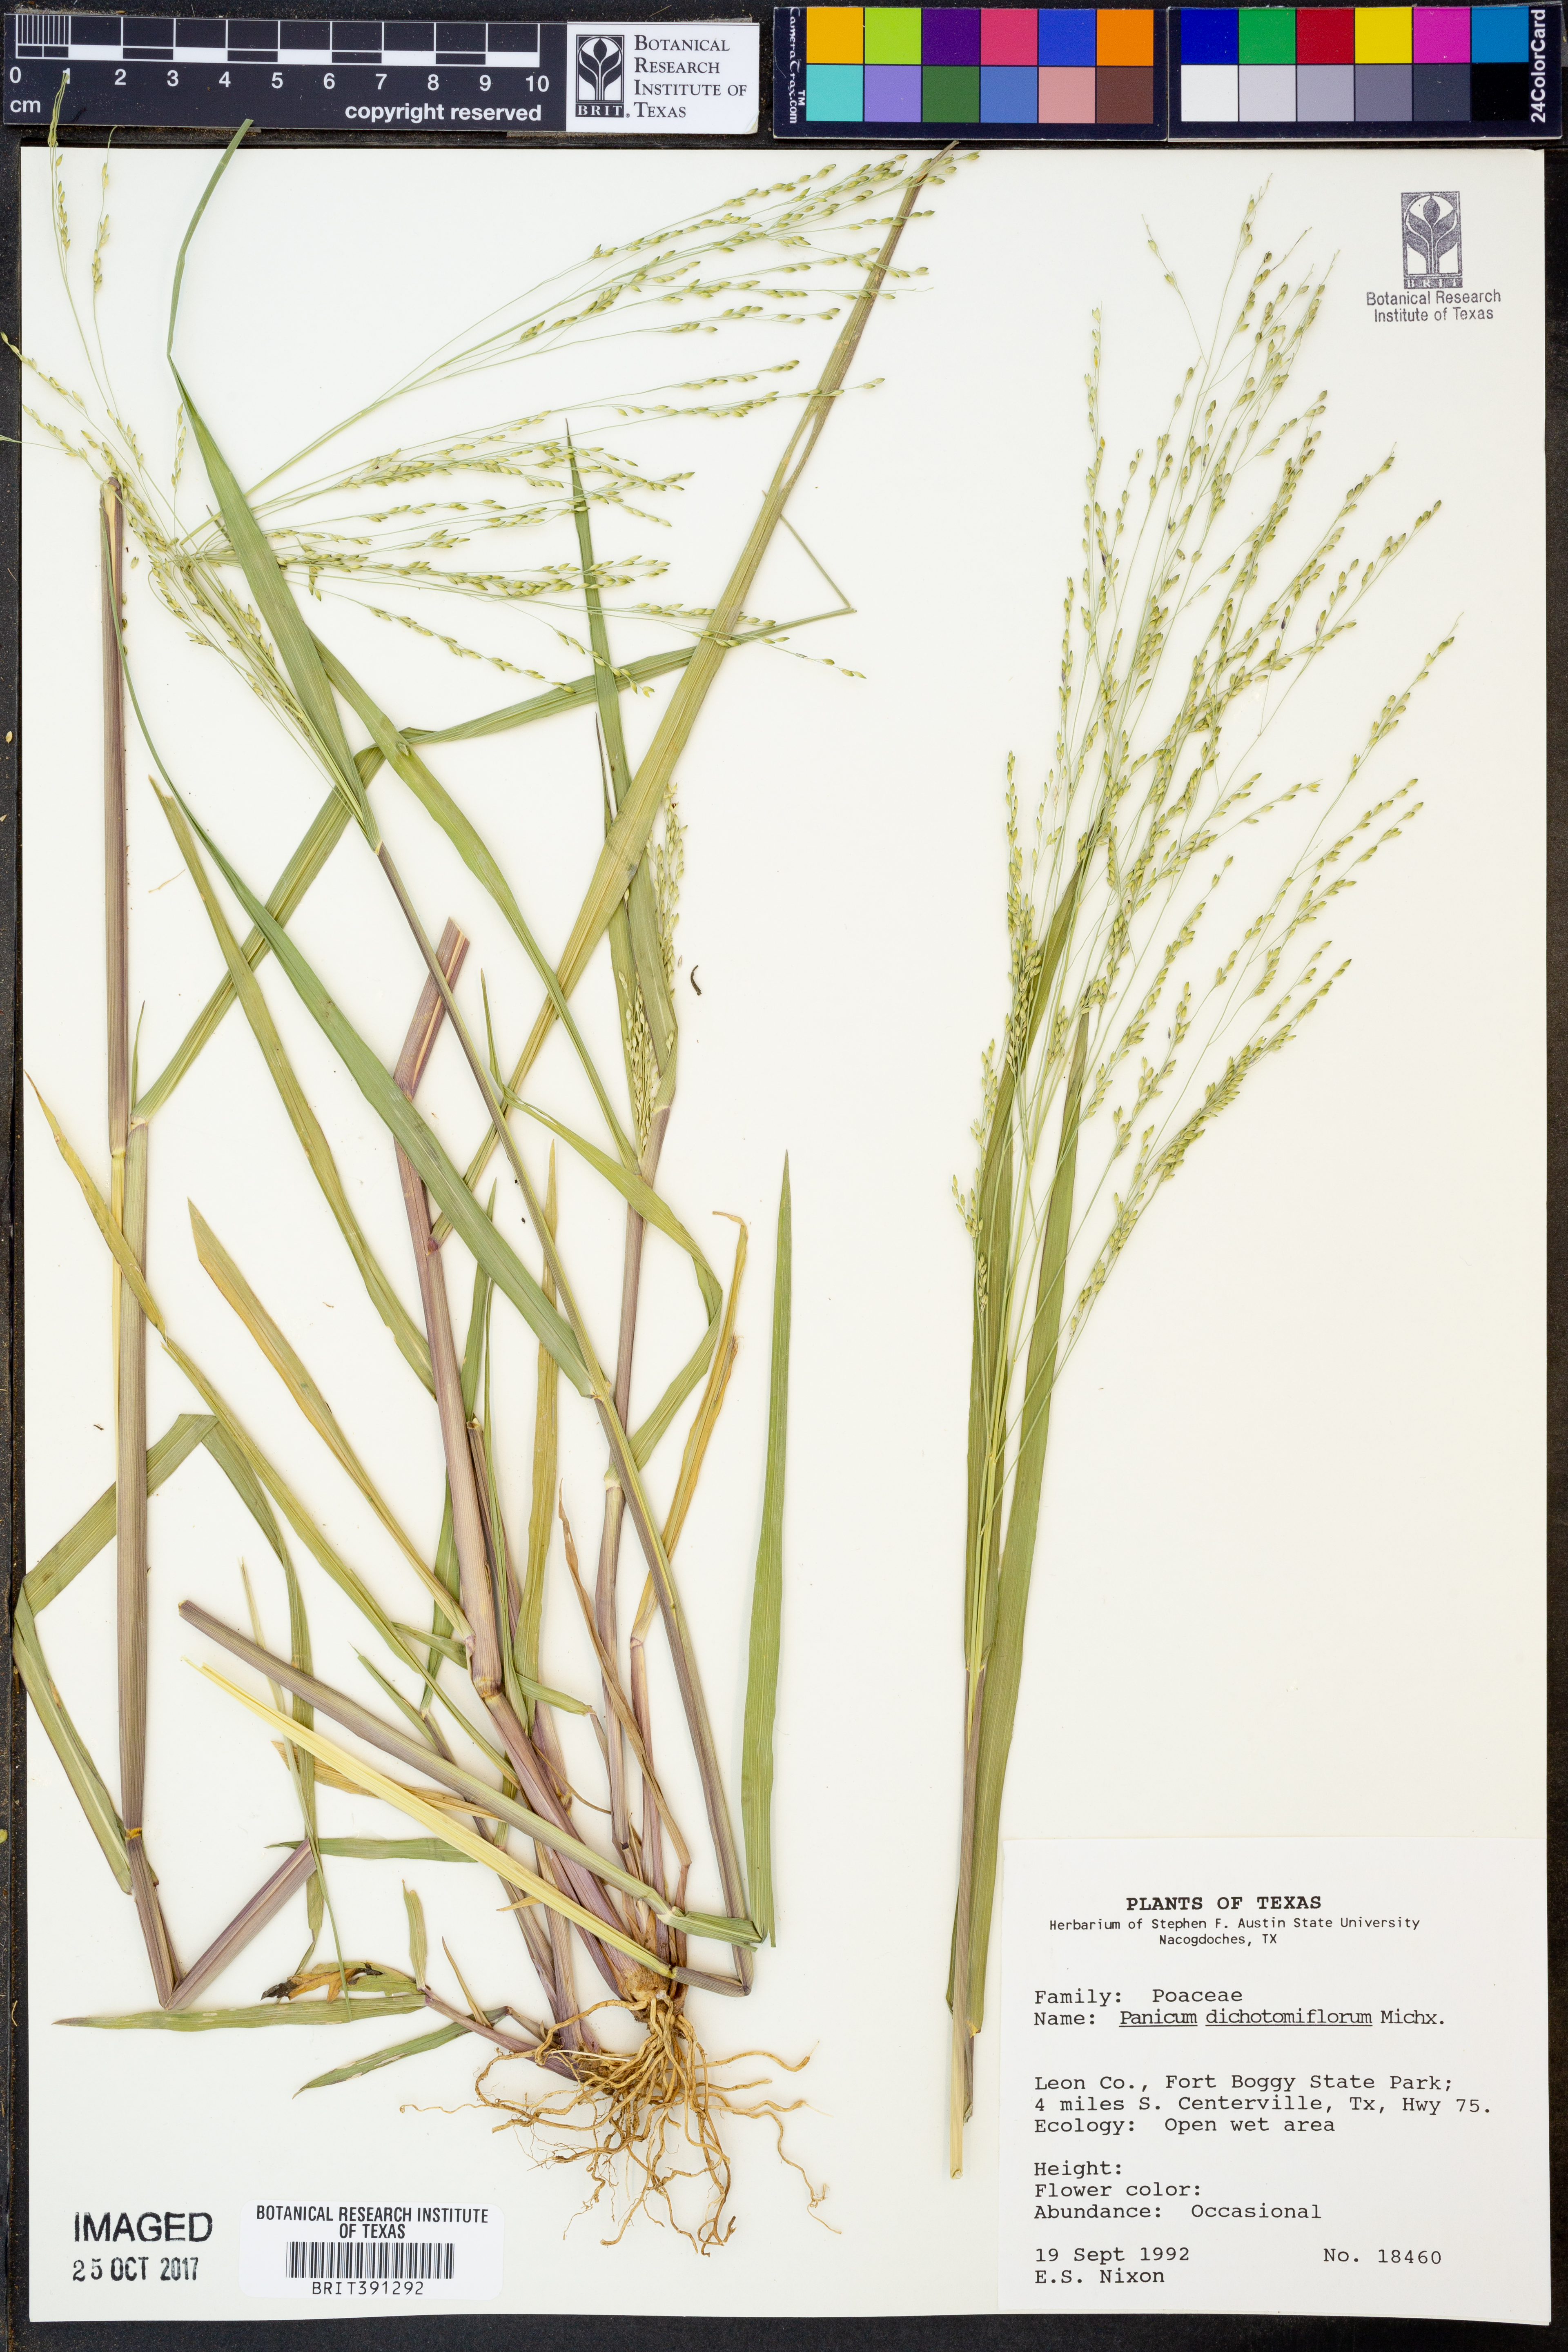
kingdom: Plantae
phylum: Tracheophyta
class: Liliopsida
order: Poales
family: Poaceae
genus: Panicum
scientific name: Panicum dichotomiflorum
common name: Autumn millet
